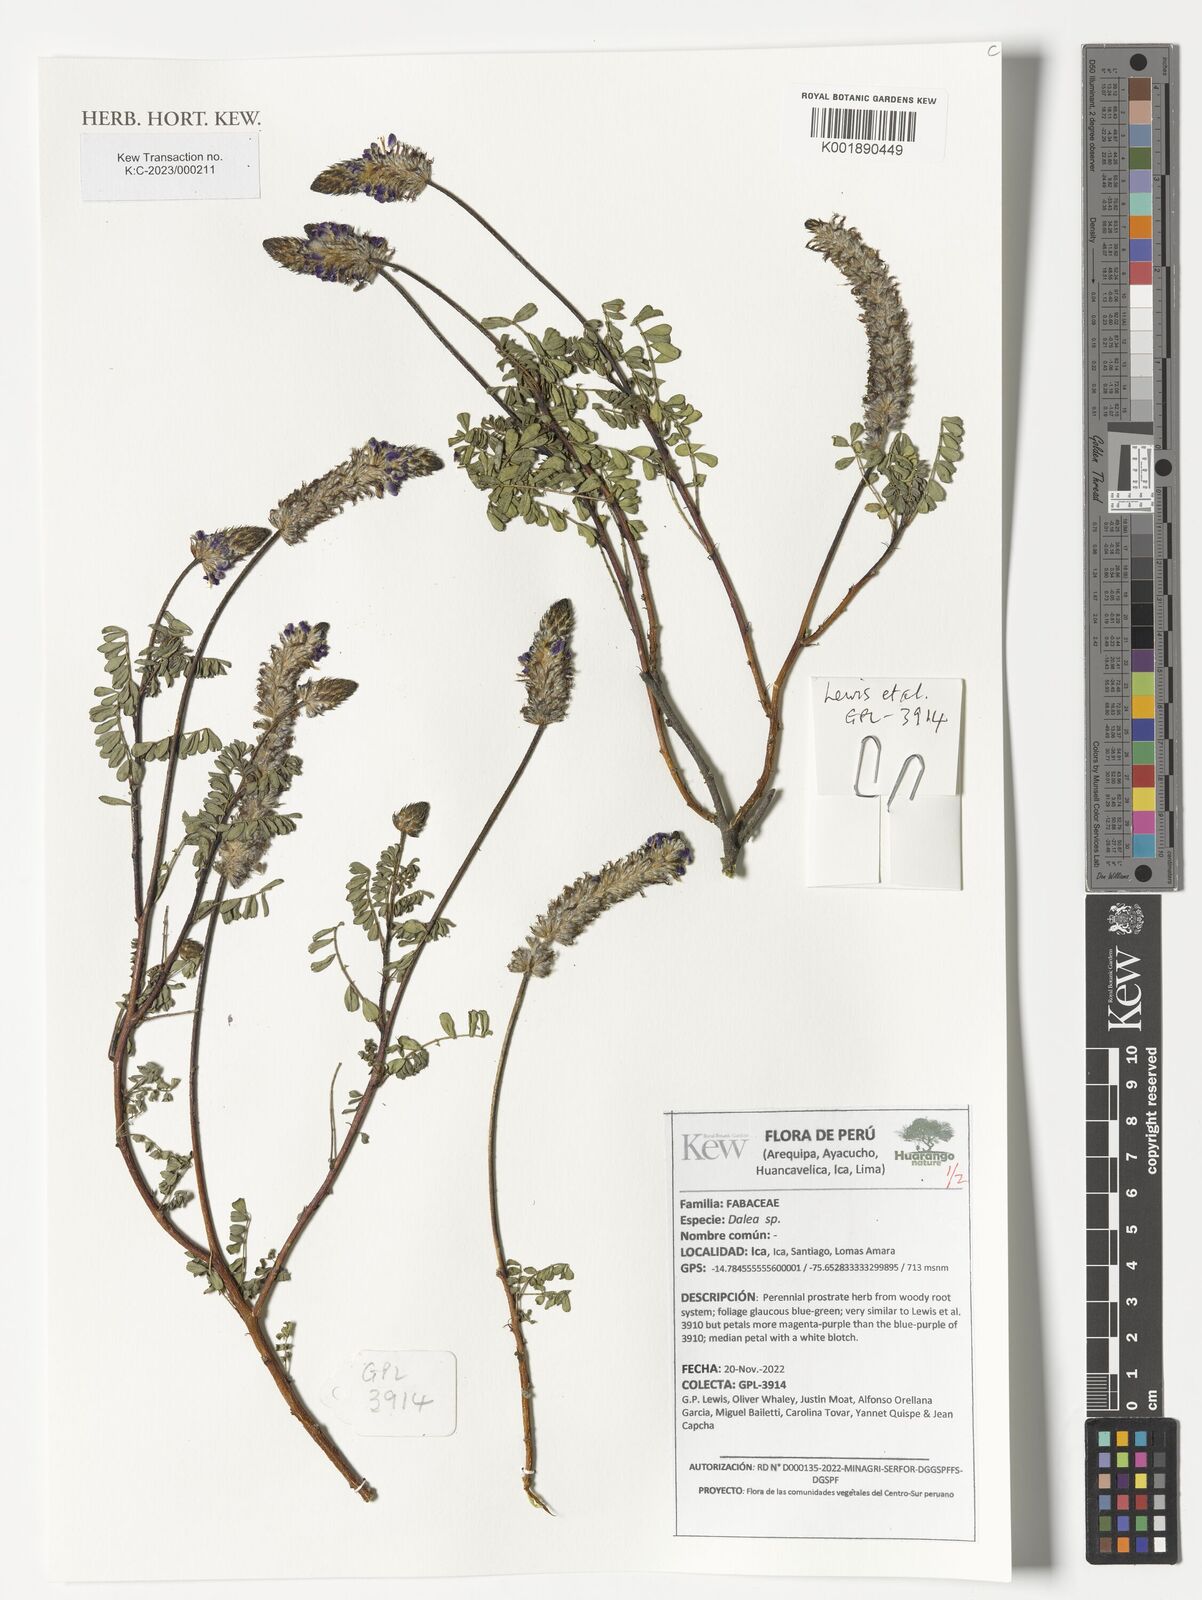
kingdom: Plantae
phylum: Tracheophyta
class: Magnoliopsida
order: Fabales
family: Fabaceae
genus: Dalea
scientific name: Dalea
